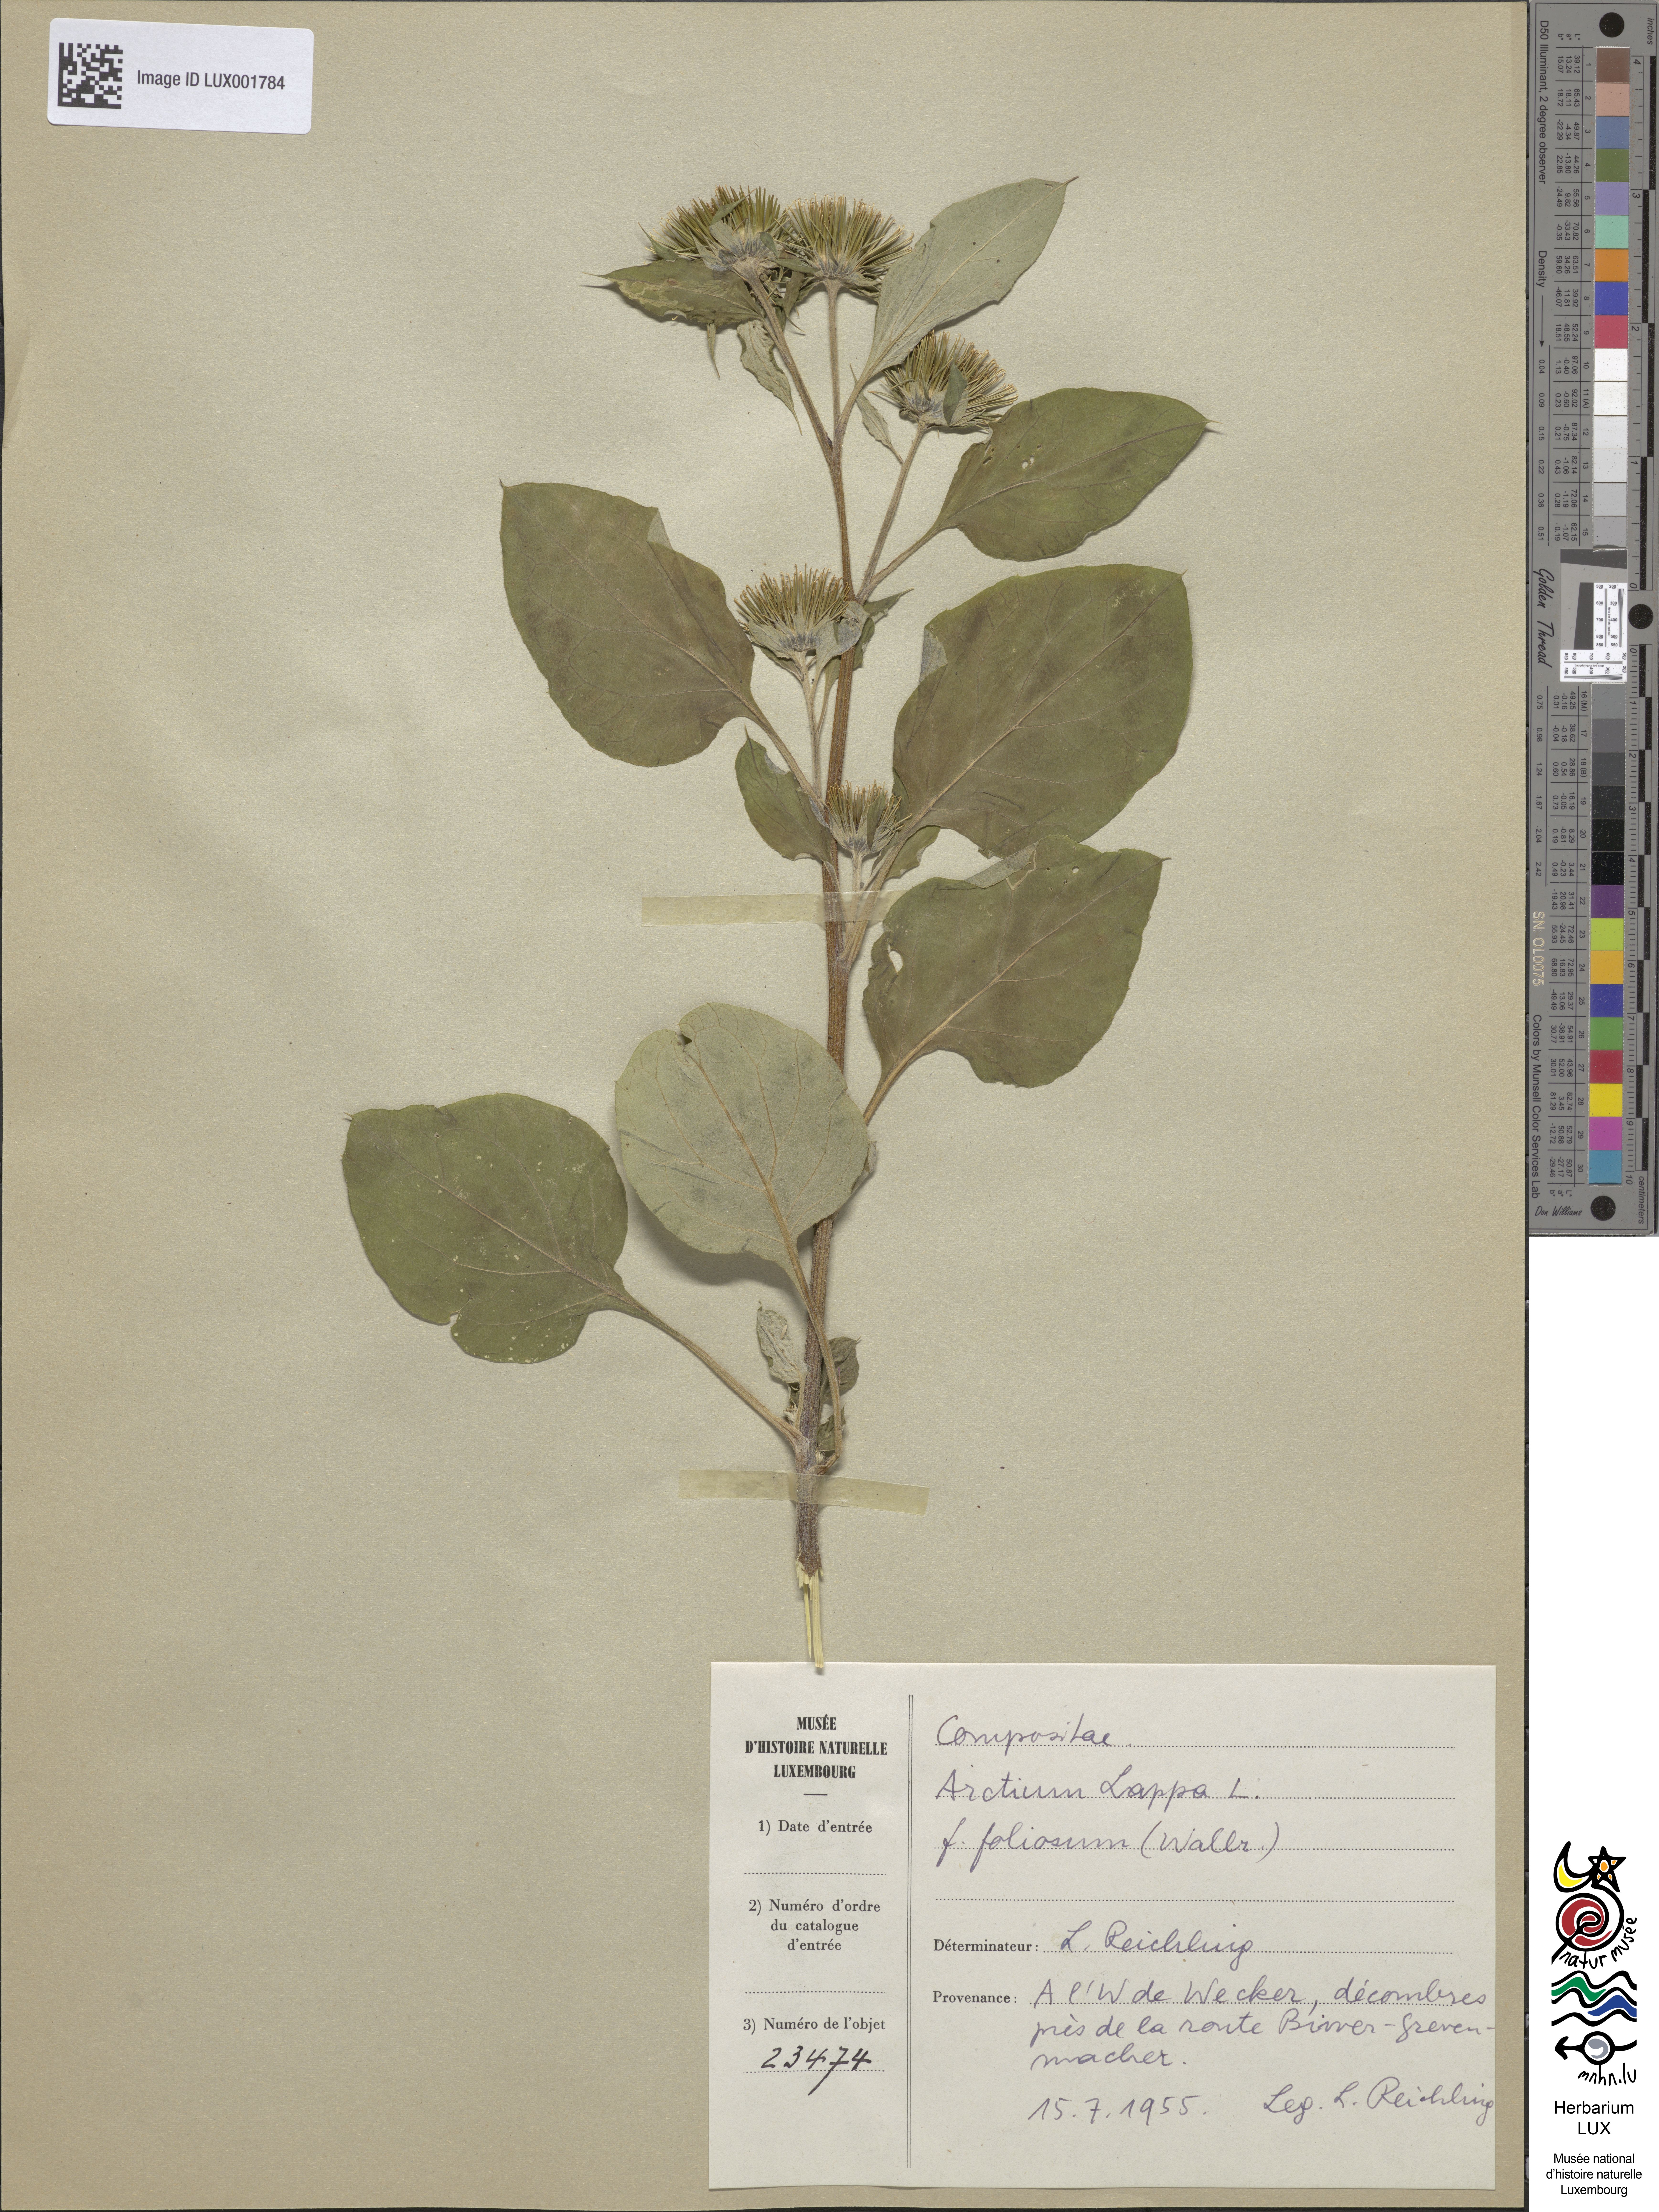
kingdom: Plantae
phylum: Tracheophyta
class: Magnoliopsida
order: Asterales
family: Asteraceae
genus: Arctium
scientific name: Arctium lappa
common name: Greater burdock
